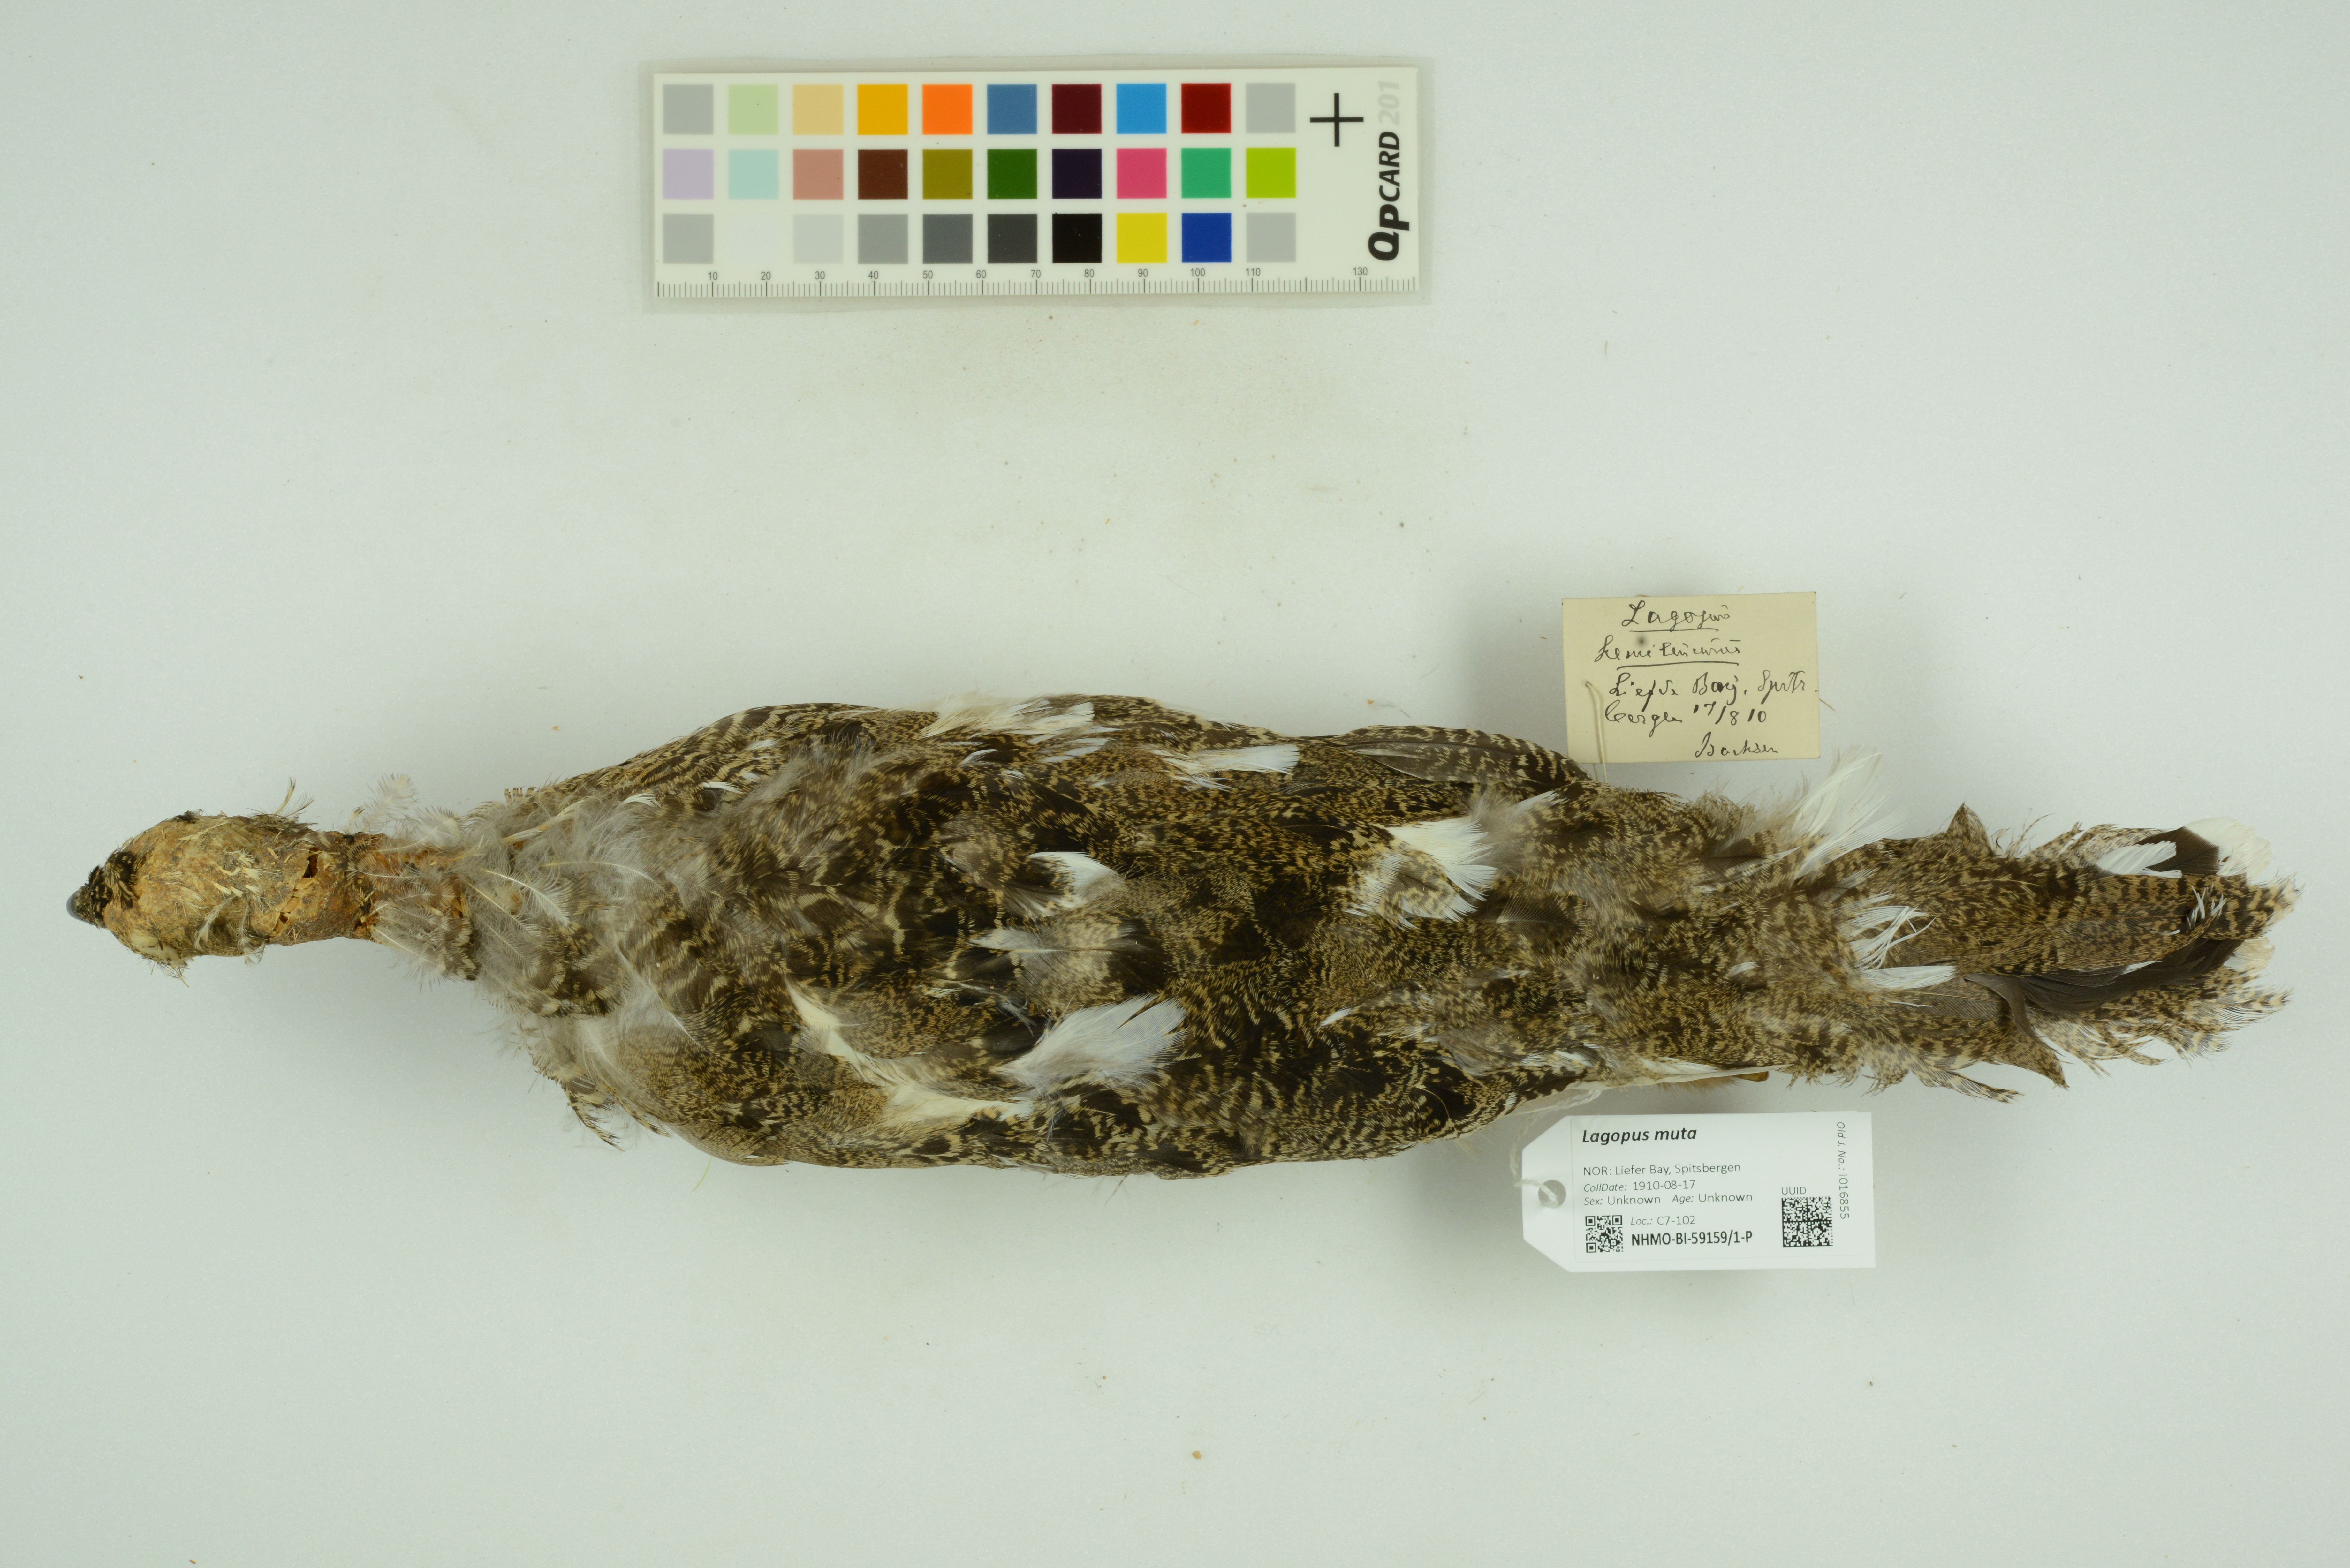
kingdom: Animalia
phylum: Chordata
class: Aves
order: Galliformes
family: Phasianidae
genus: Lagopus
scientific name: Lagopus muta
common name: Rock ptarmigan
